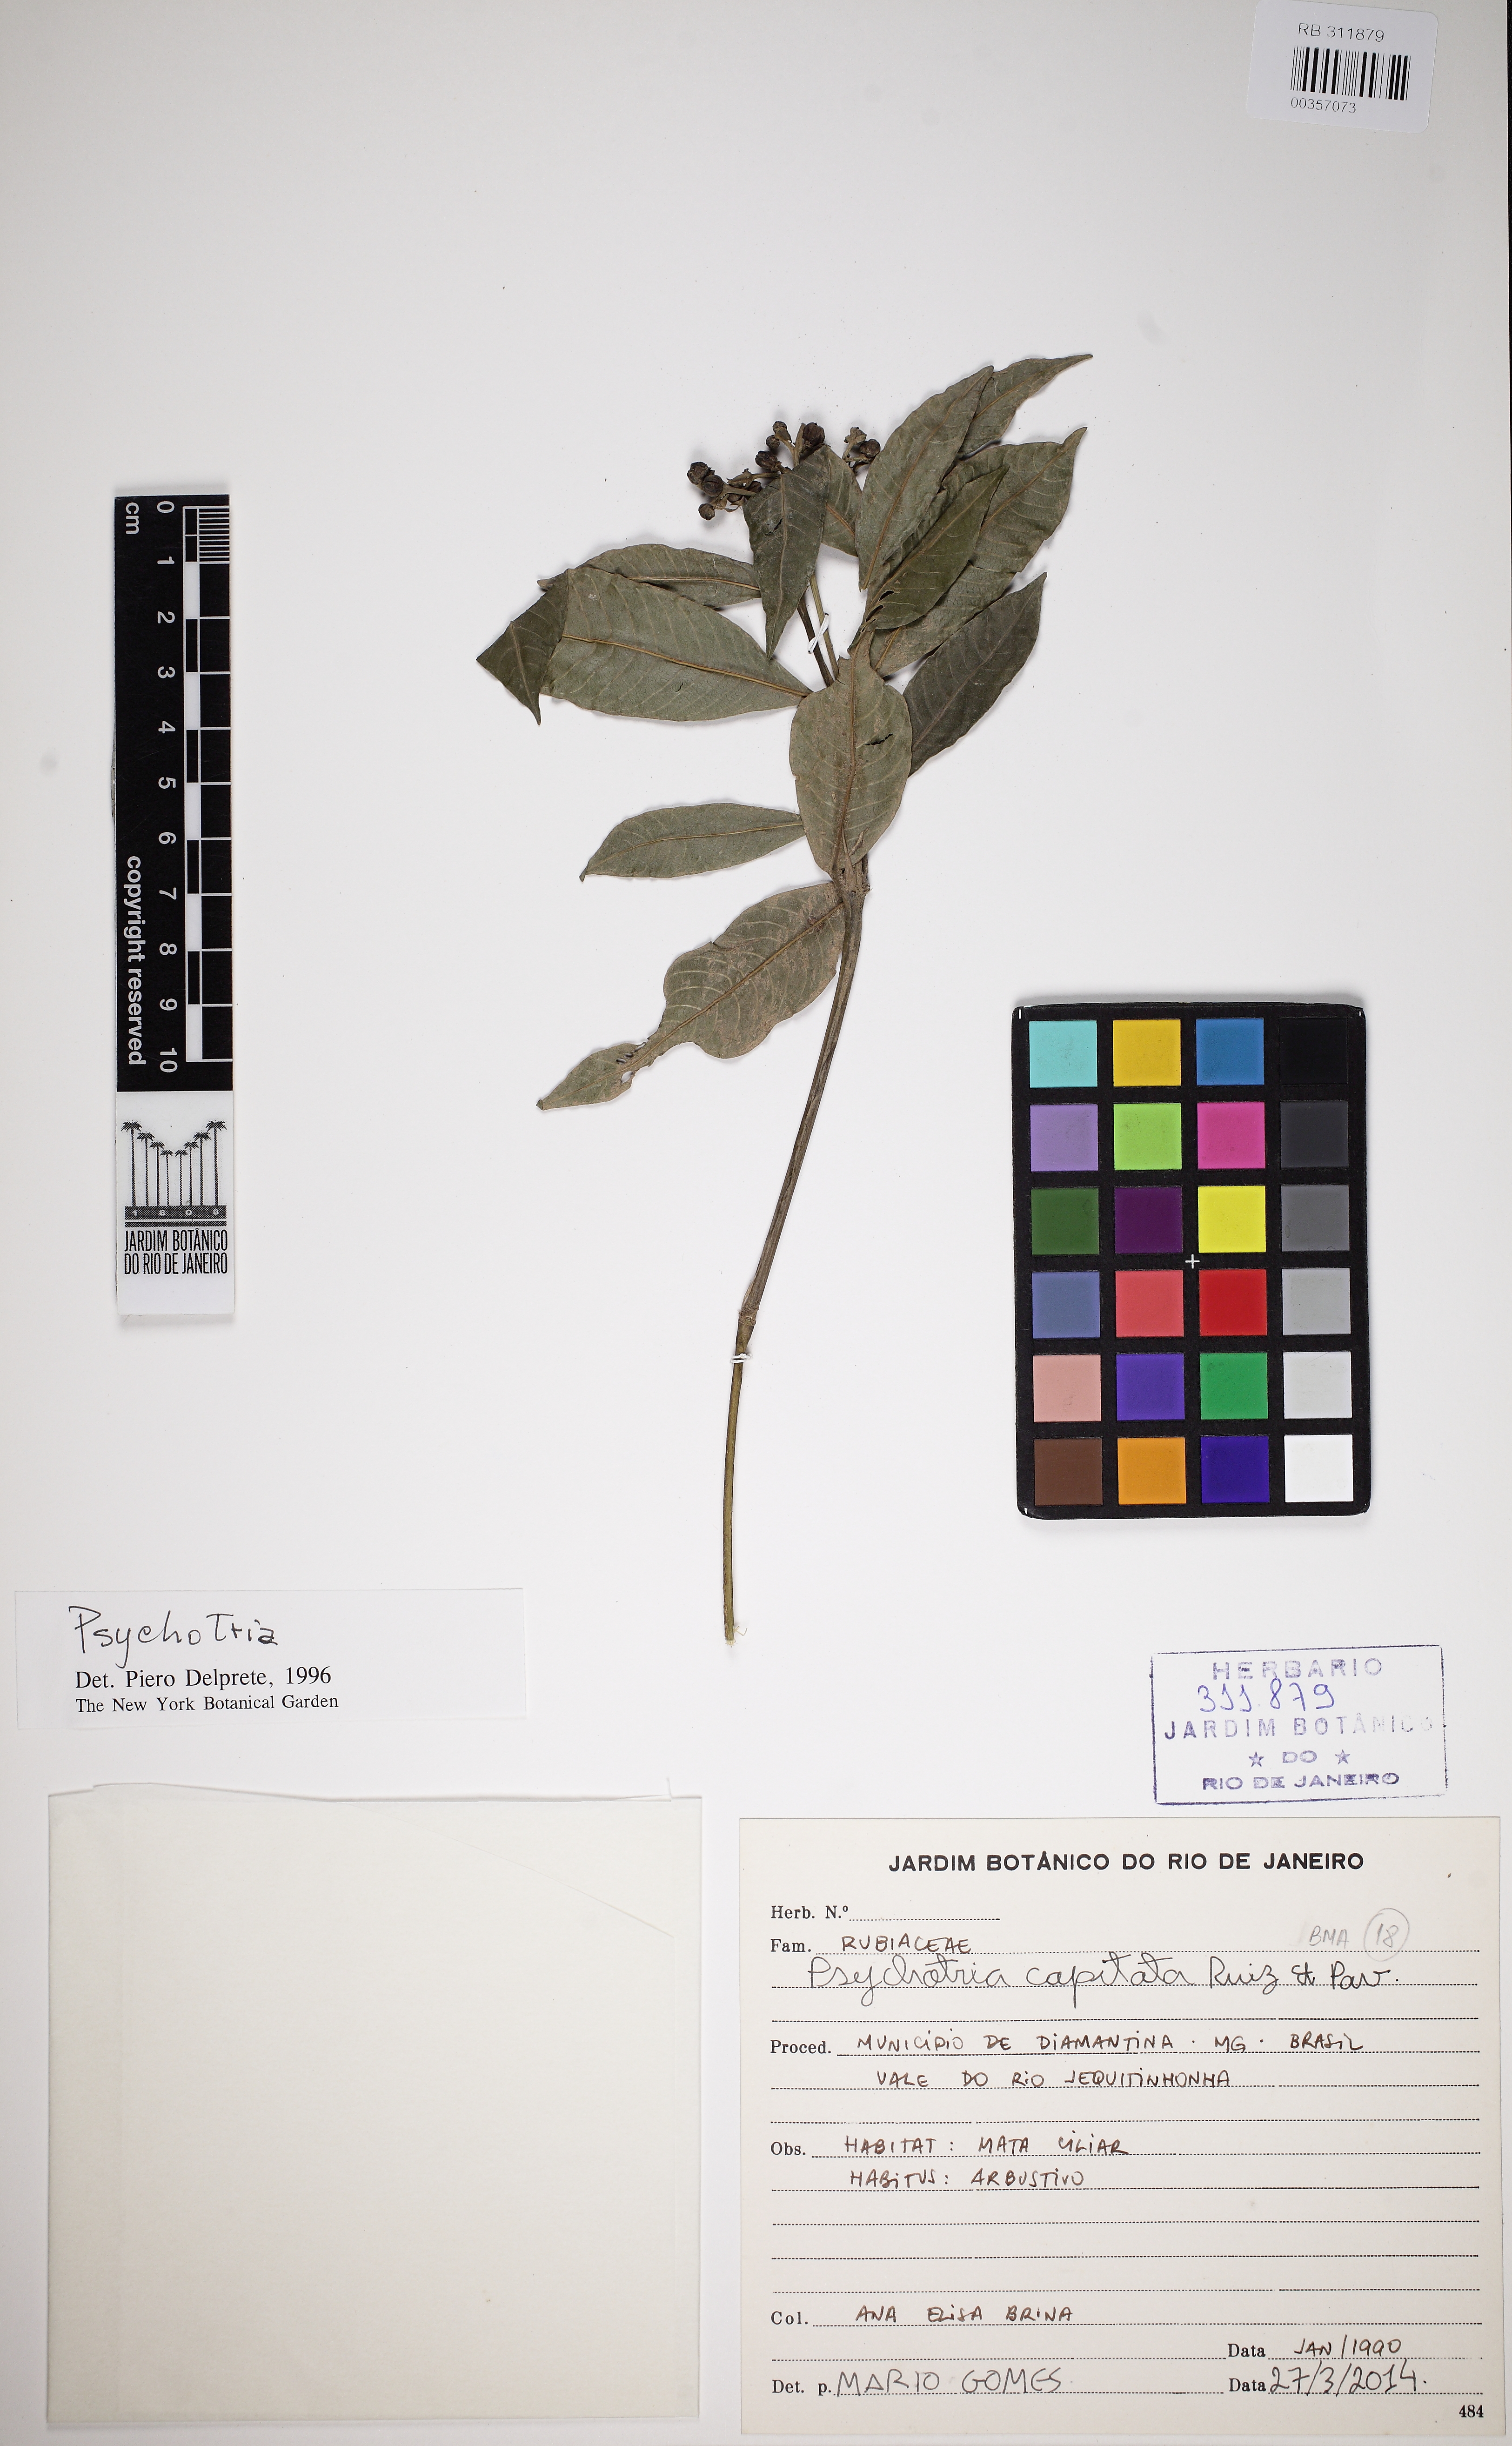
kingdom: Plantae
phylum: Tracheophyta
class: Magnoliopsida
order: Gentianales
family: Rubiaceae
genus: Palicourea
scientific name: Palicourea violacea
